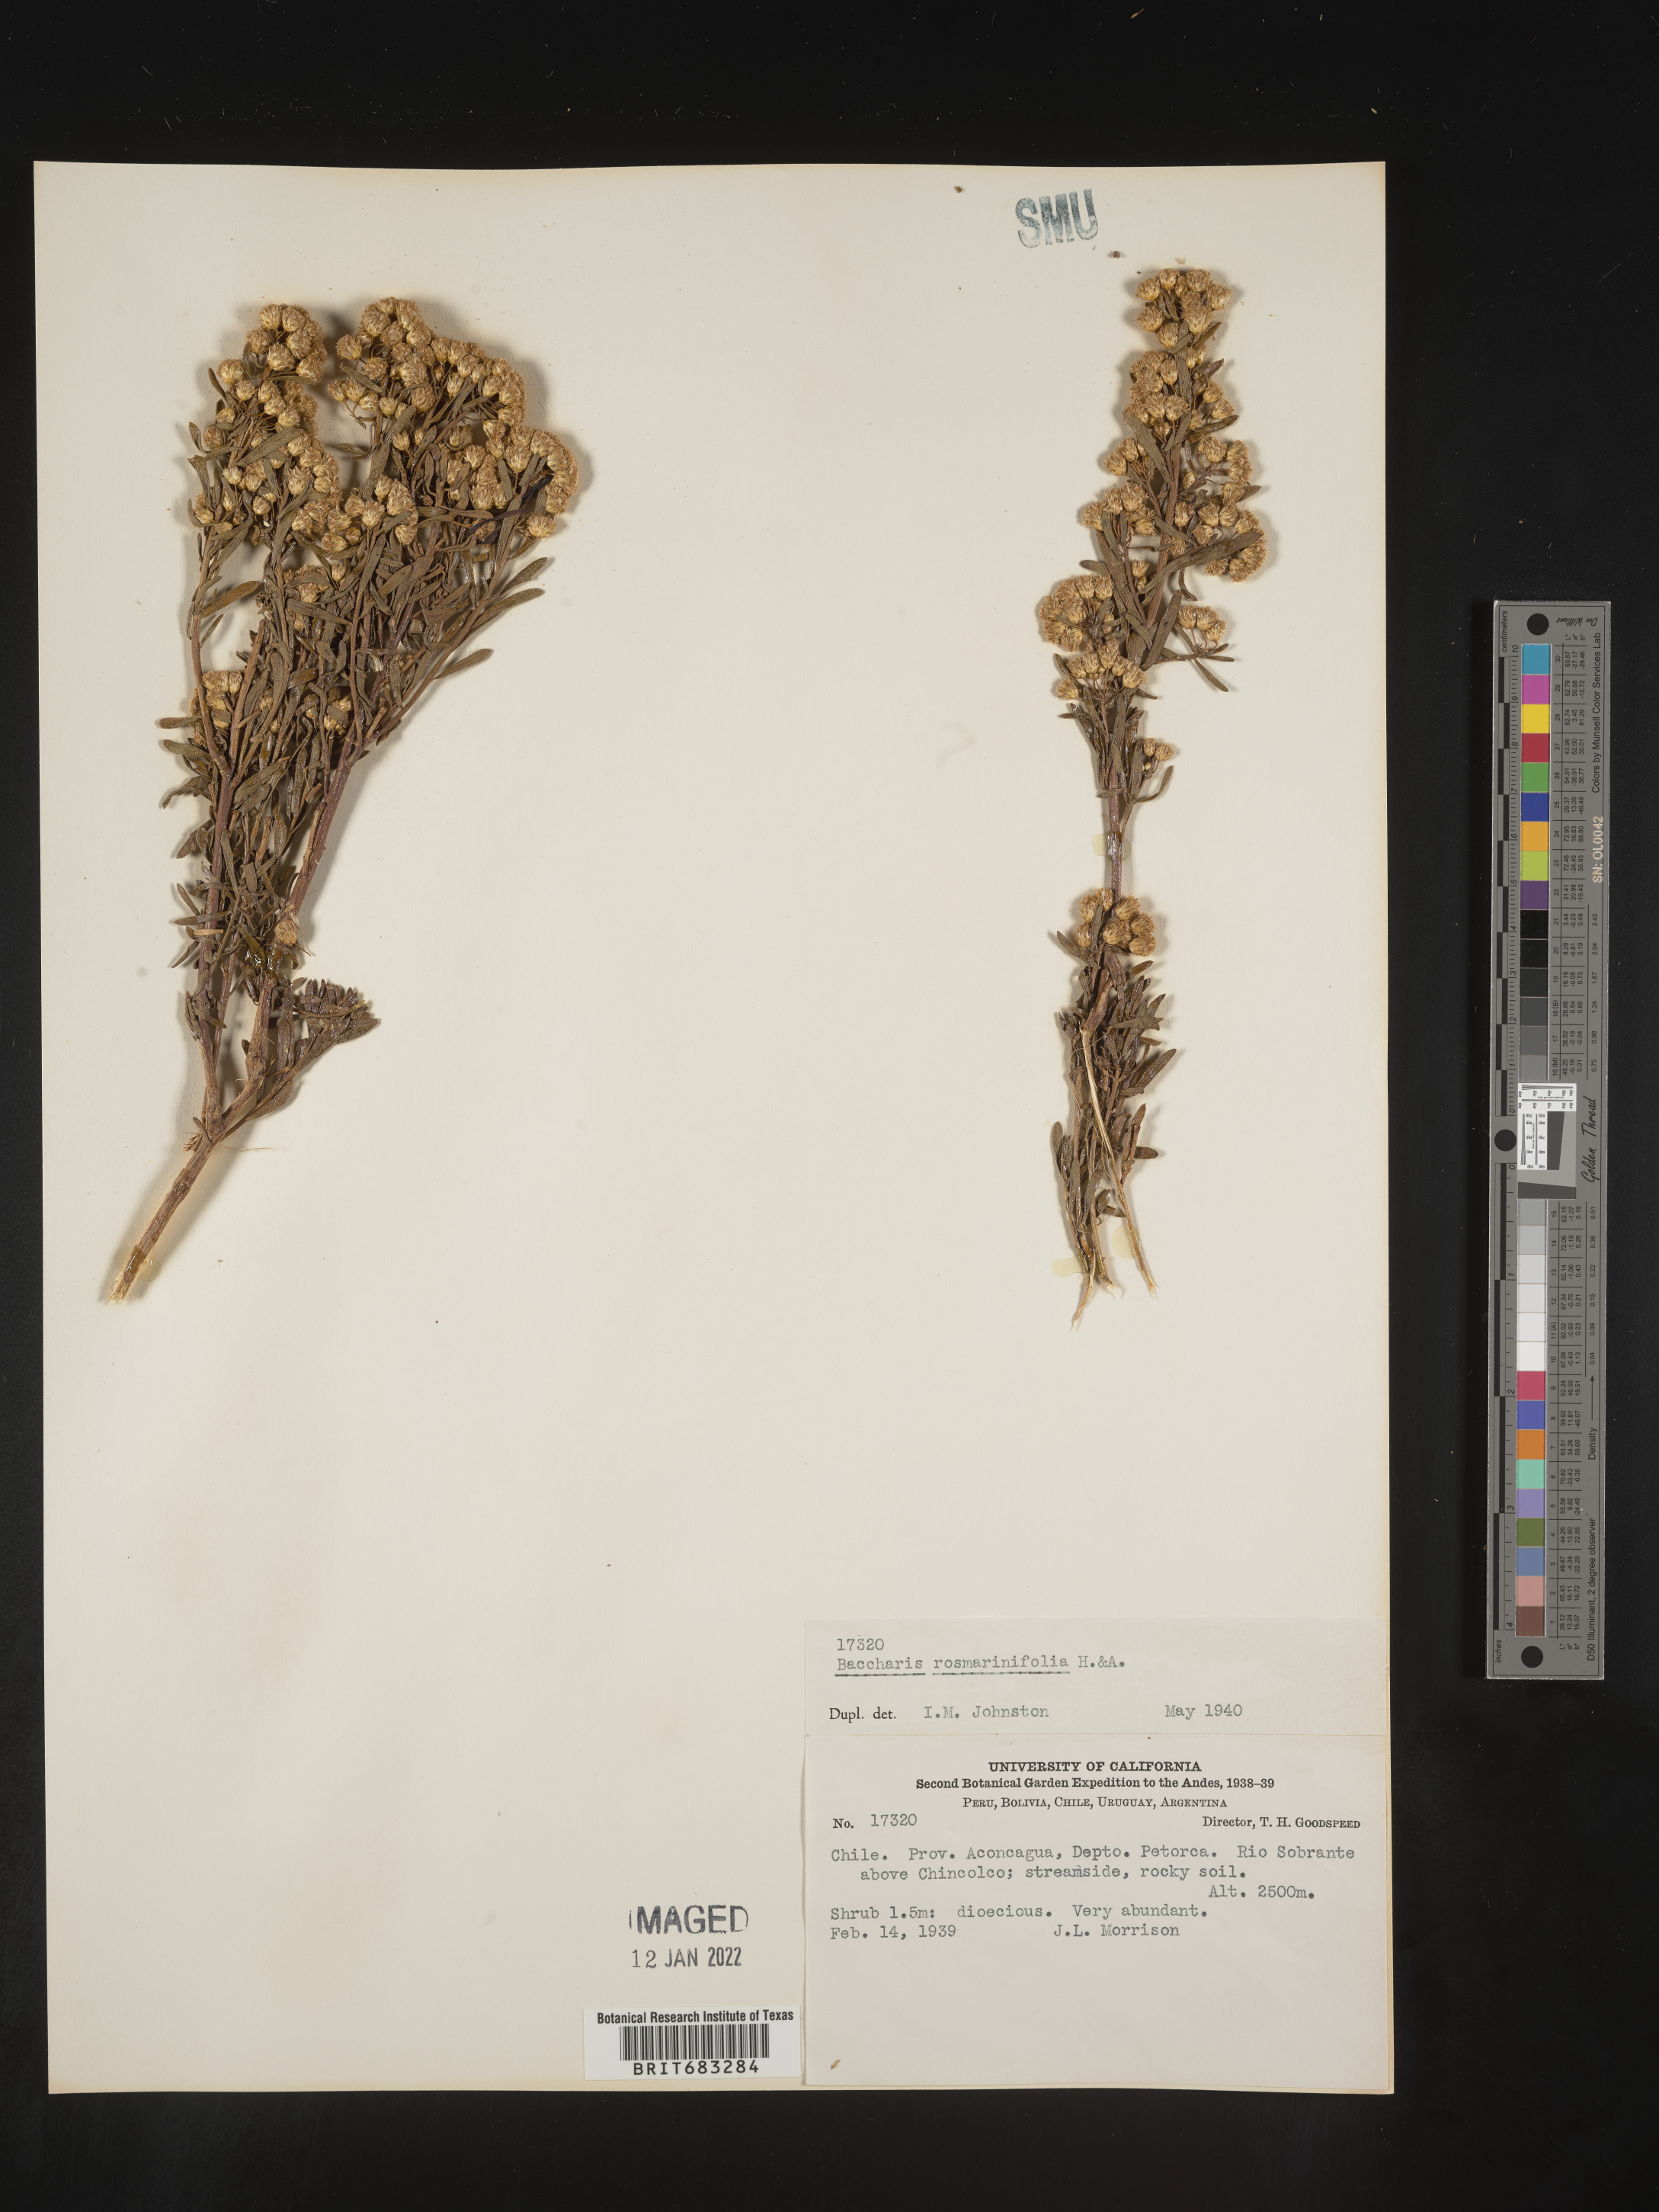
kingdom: Plantae
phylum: Tracheophyta
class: Magnoliopsida
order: Asterales
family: Asteraceae
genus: Baccharis
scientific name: Baccharis
